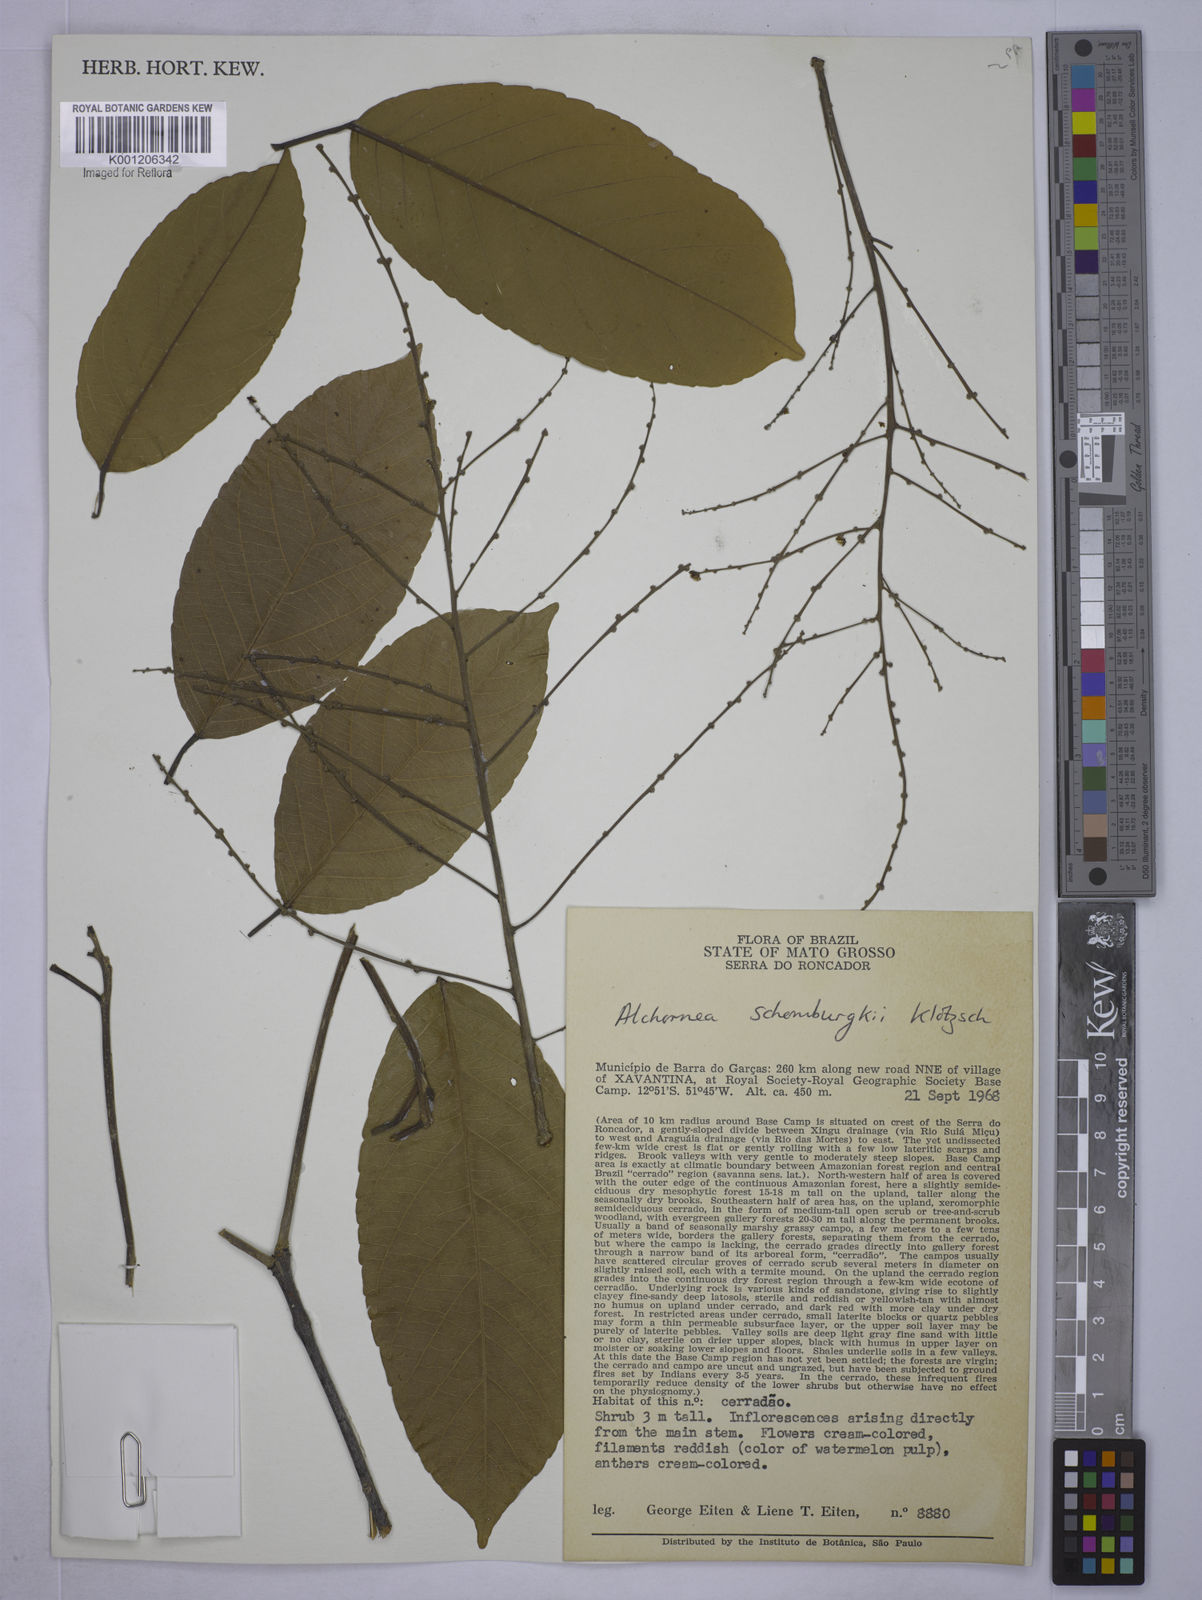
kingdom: Plantae
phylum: Tracheophyta
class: Magnoliopsida
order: Malpighiales
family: Euphorbiaceae
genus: Alchornea
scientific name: Alchornea discolor
